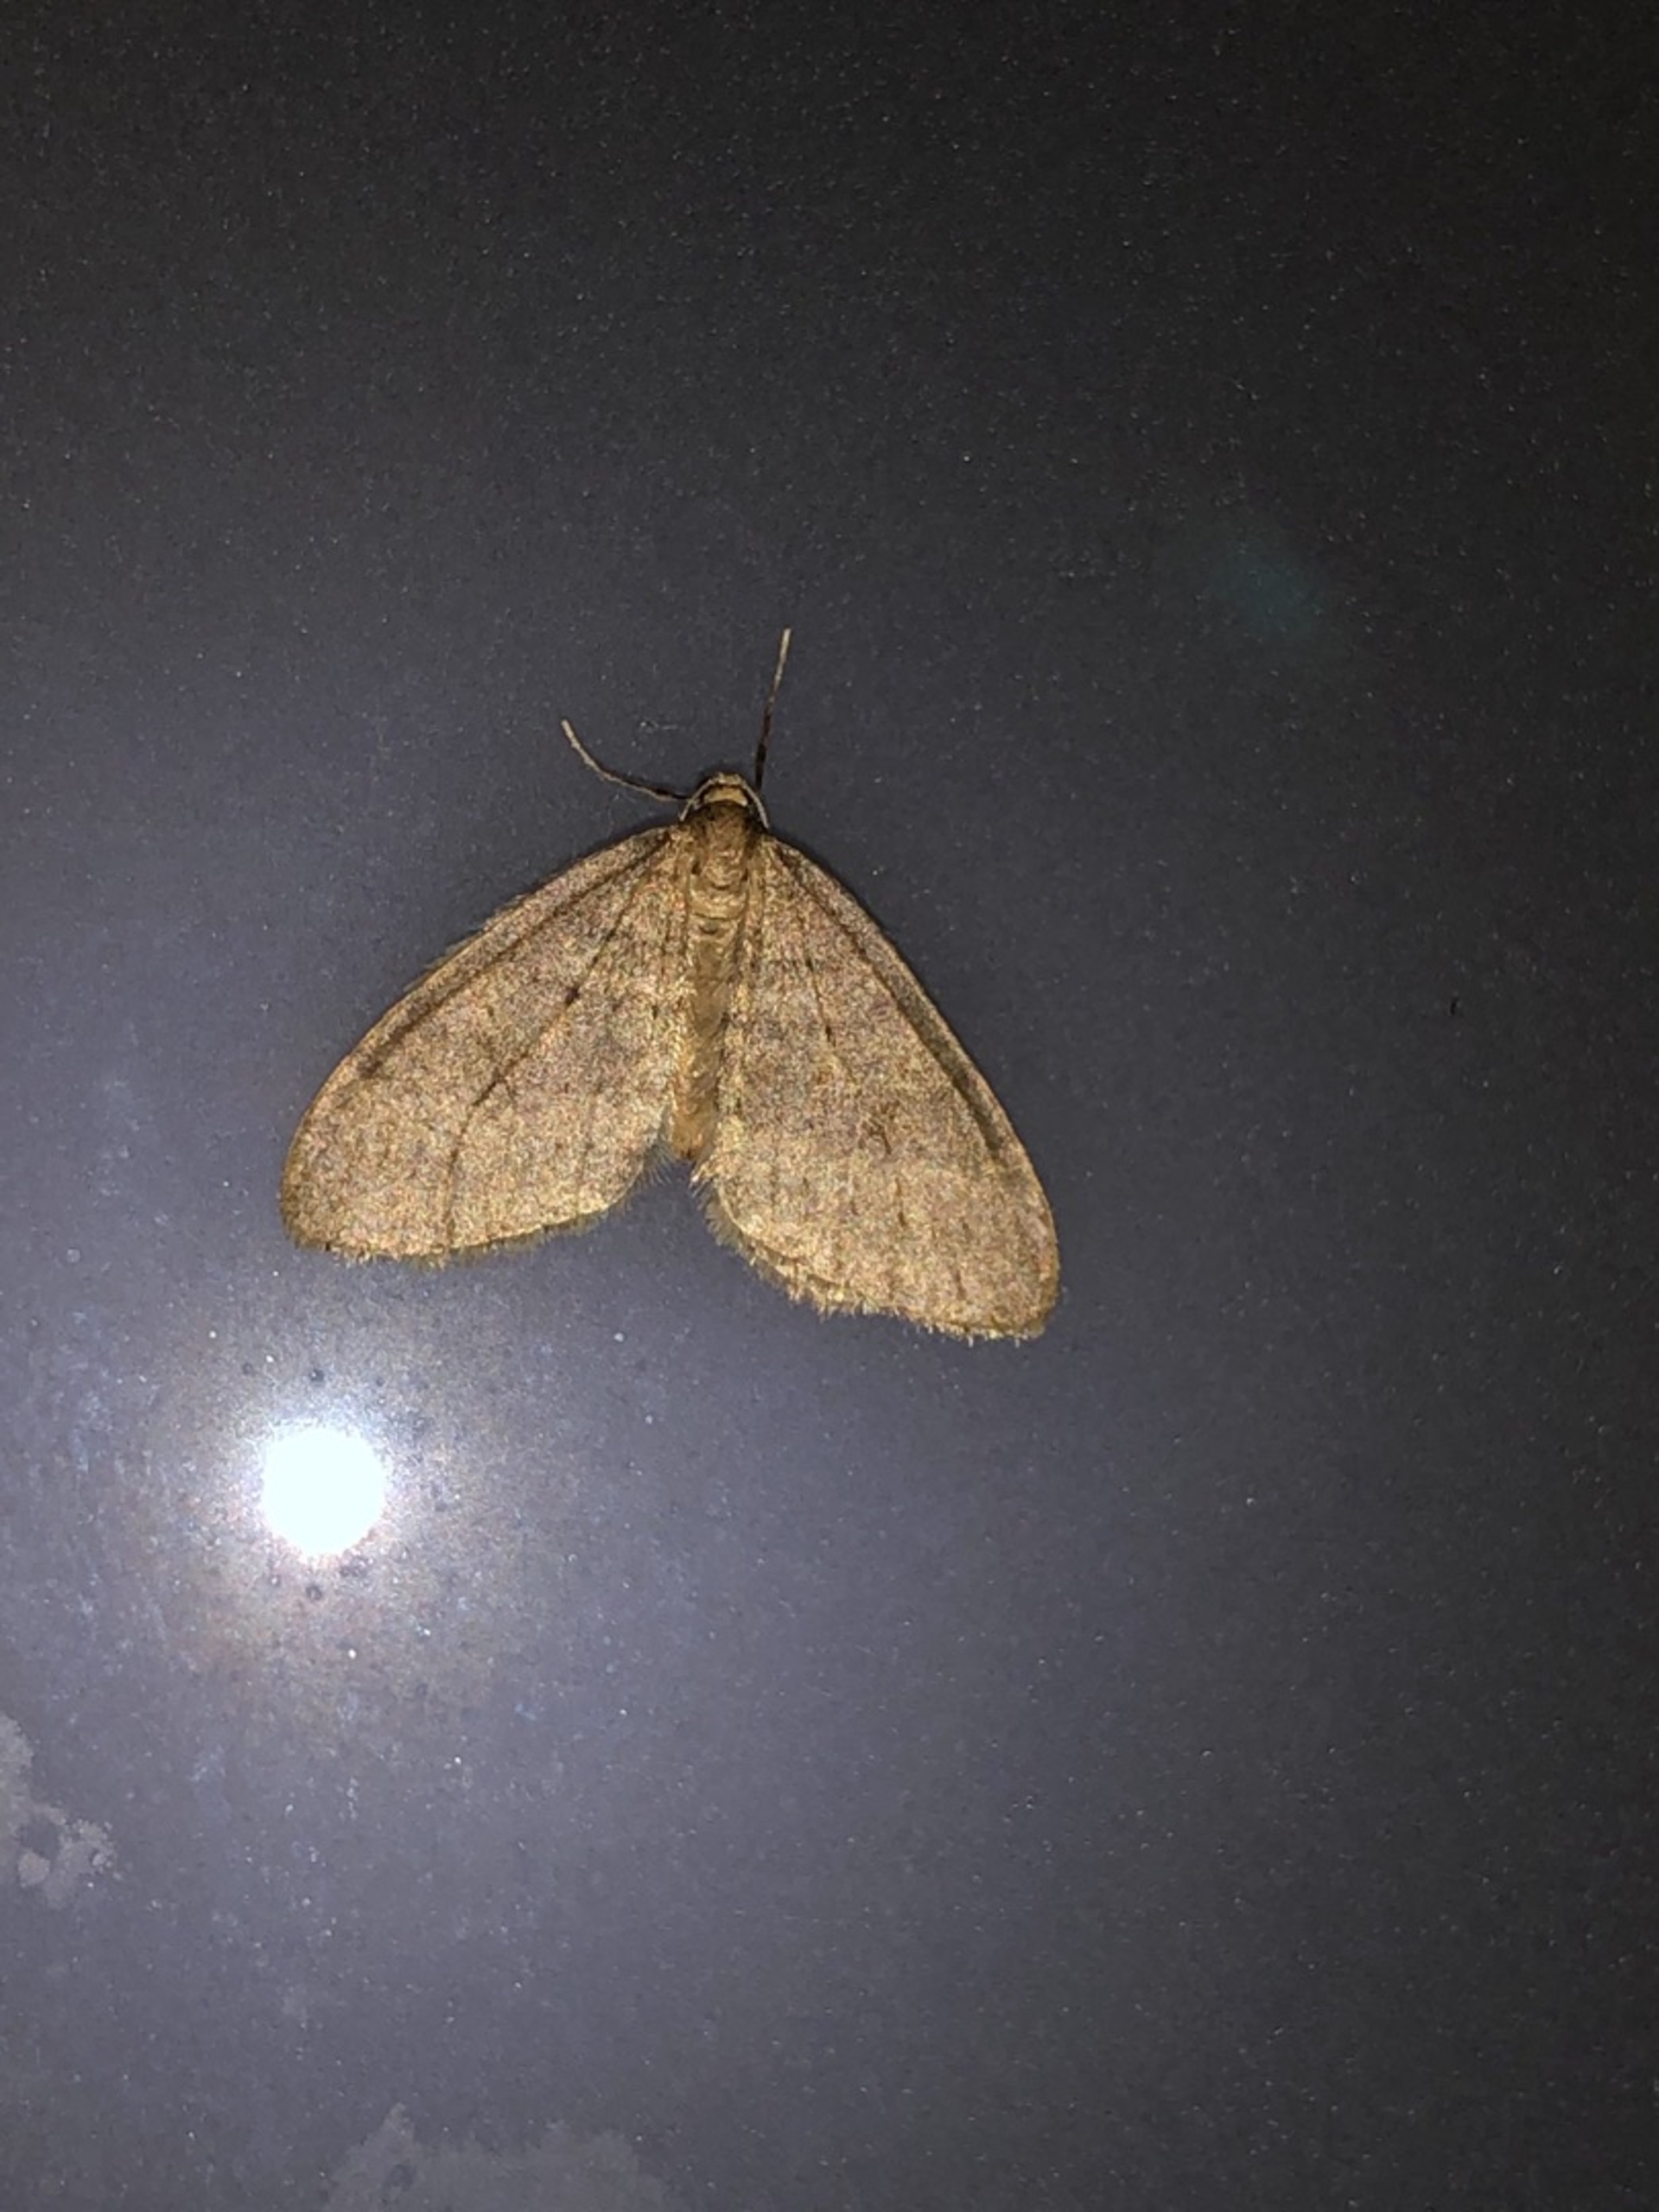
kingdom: Animalia
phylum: Arthropoda
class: Insecta
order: Lepidoptera
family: Geometridae
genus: Operophtera
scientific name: Operophtera brumata
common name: Lille frostmåler
